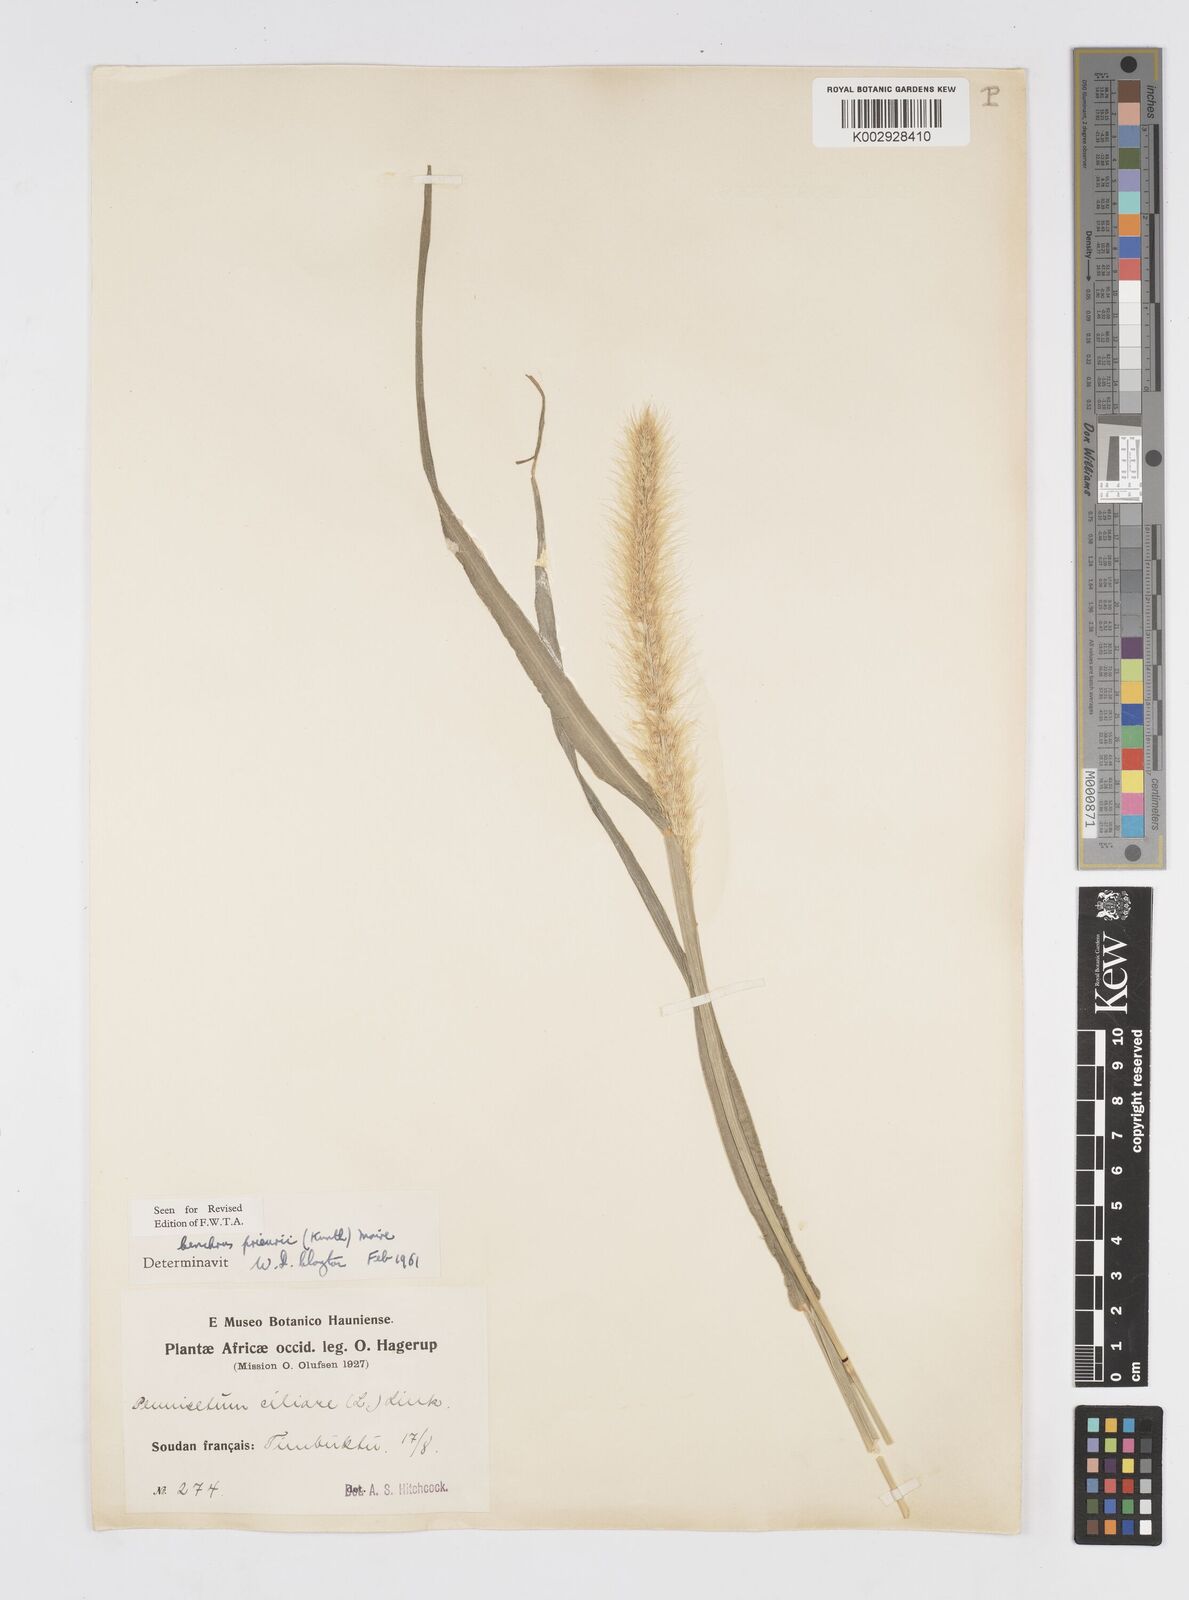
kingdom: Plantae
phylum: Tracheophyta
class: Liliopsida
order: Poales
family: Poaceae
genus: Cenchrus
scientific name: Cenchrus prieurii
